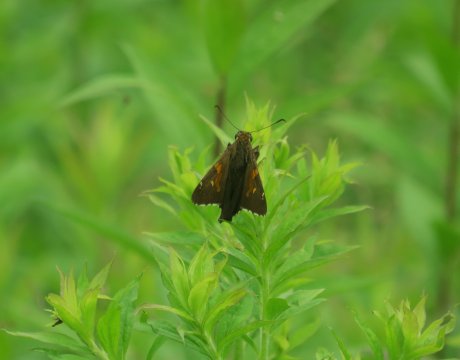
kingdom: Animalia
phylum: Arthropoda
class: Insecta
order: Lepidoptera
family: Hesperiidae
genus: Epargyreus
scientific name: Epargyreus clarus
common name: Silver-spotted Skipper
